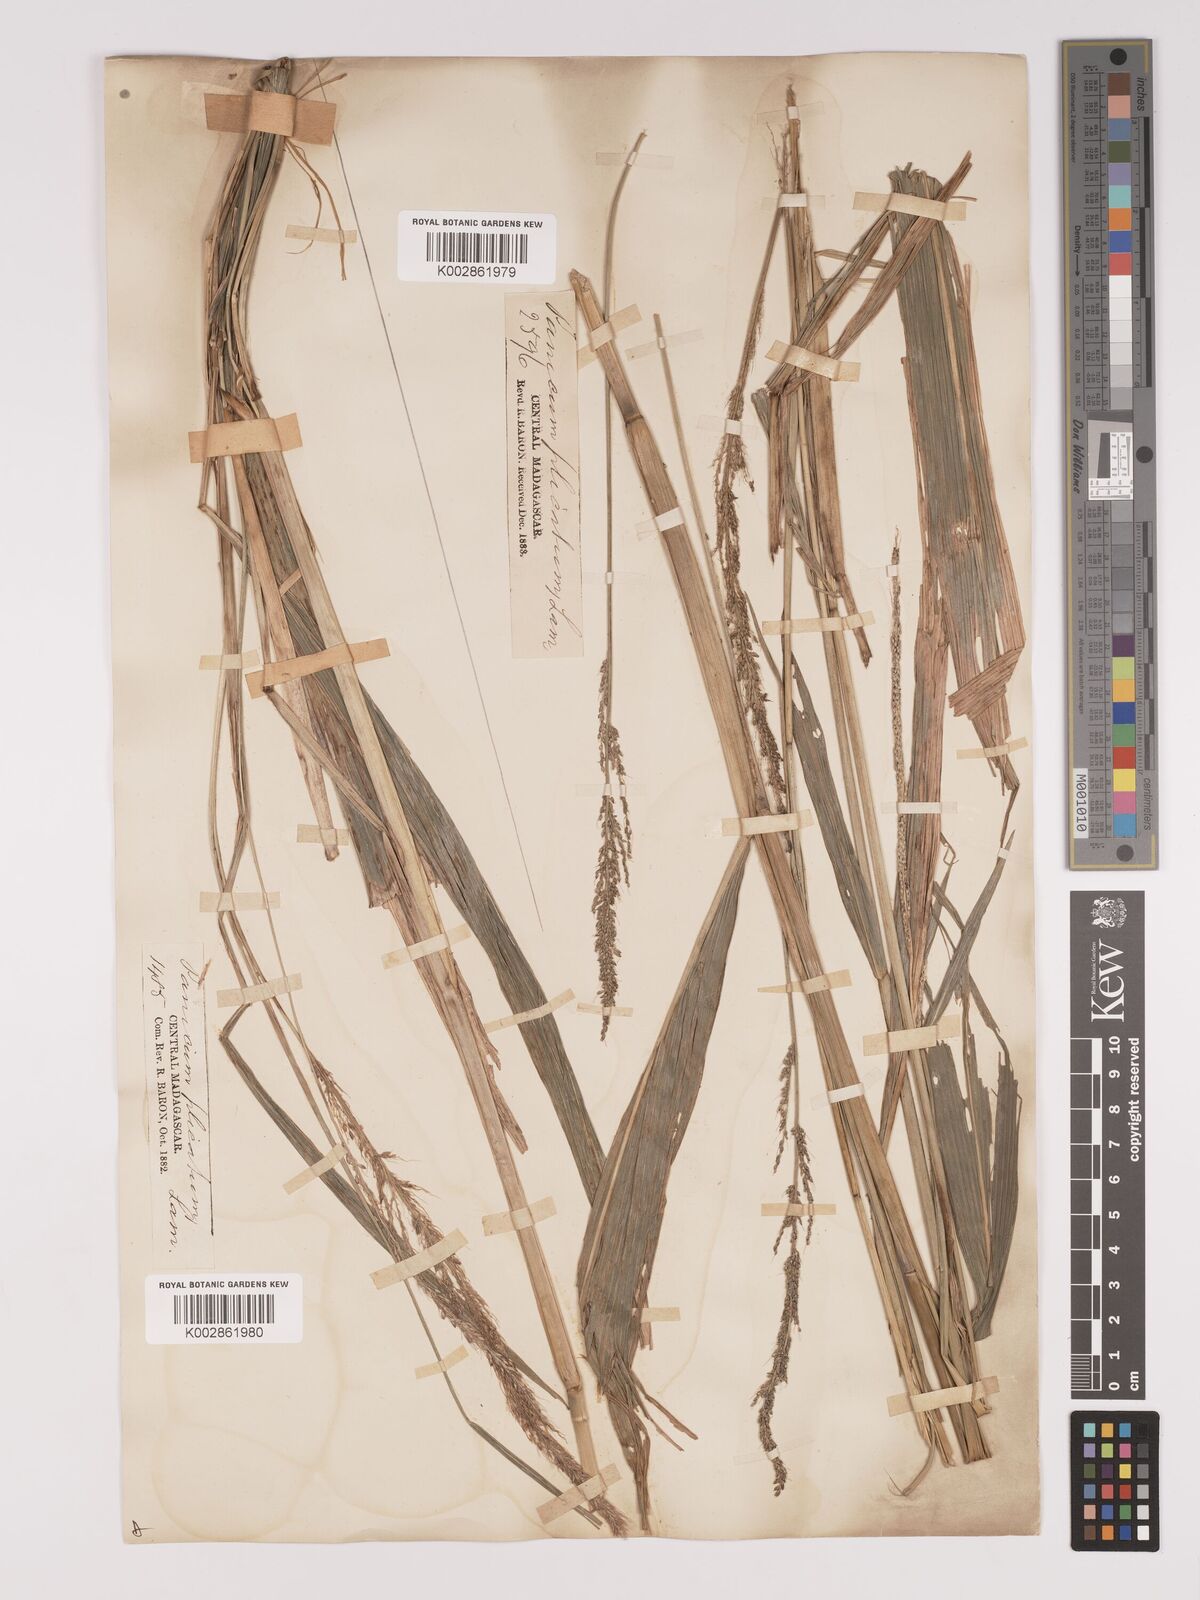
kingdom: Plantae
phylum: Tracheophyta
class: Liliopsida
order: Poales
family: Poaceae
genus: Setaria
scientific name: Setaria megaphylla
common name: Bigleaf bristlegrass
